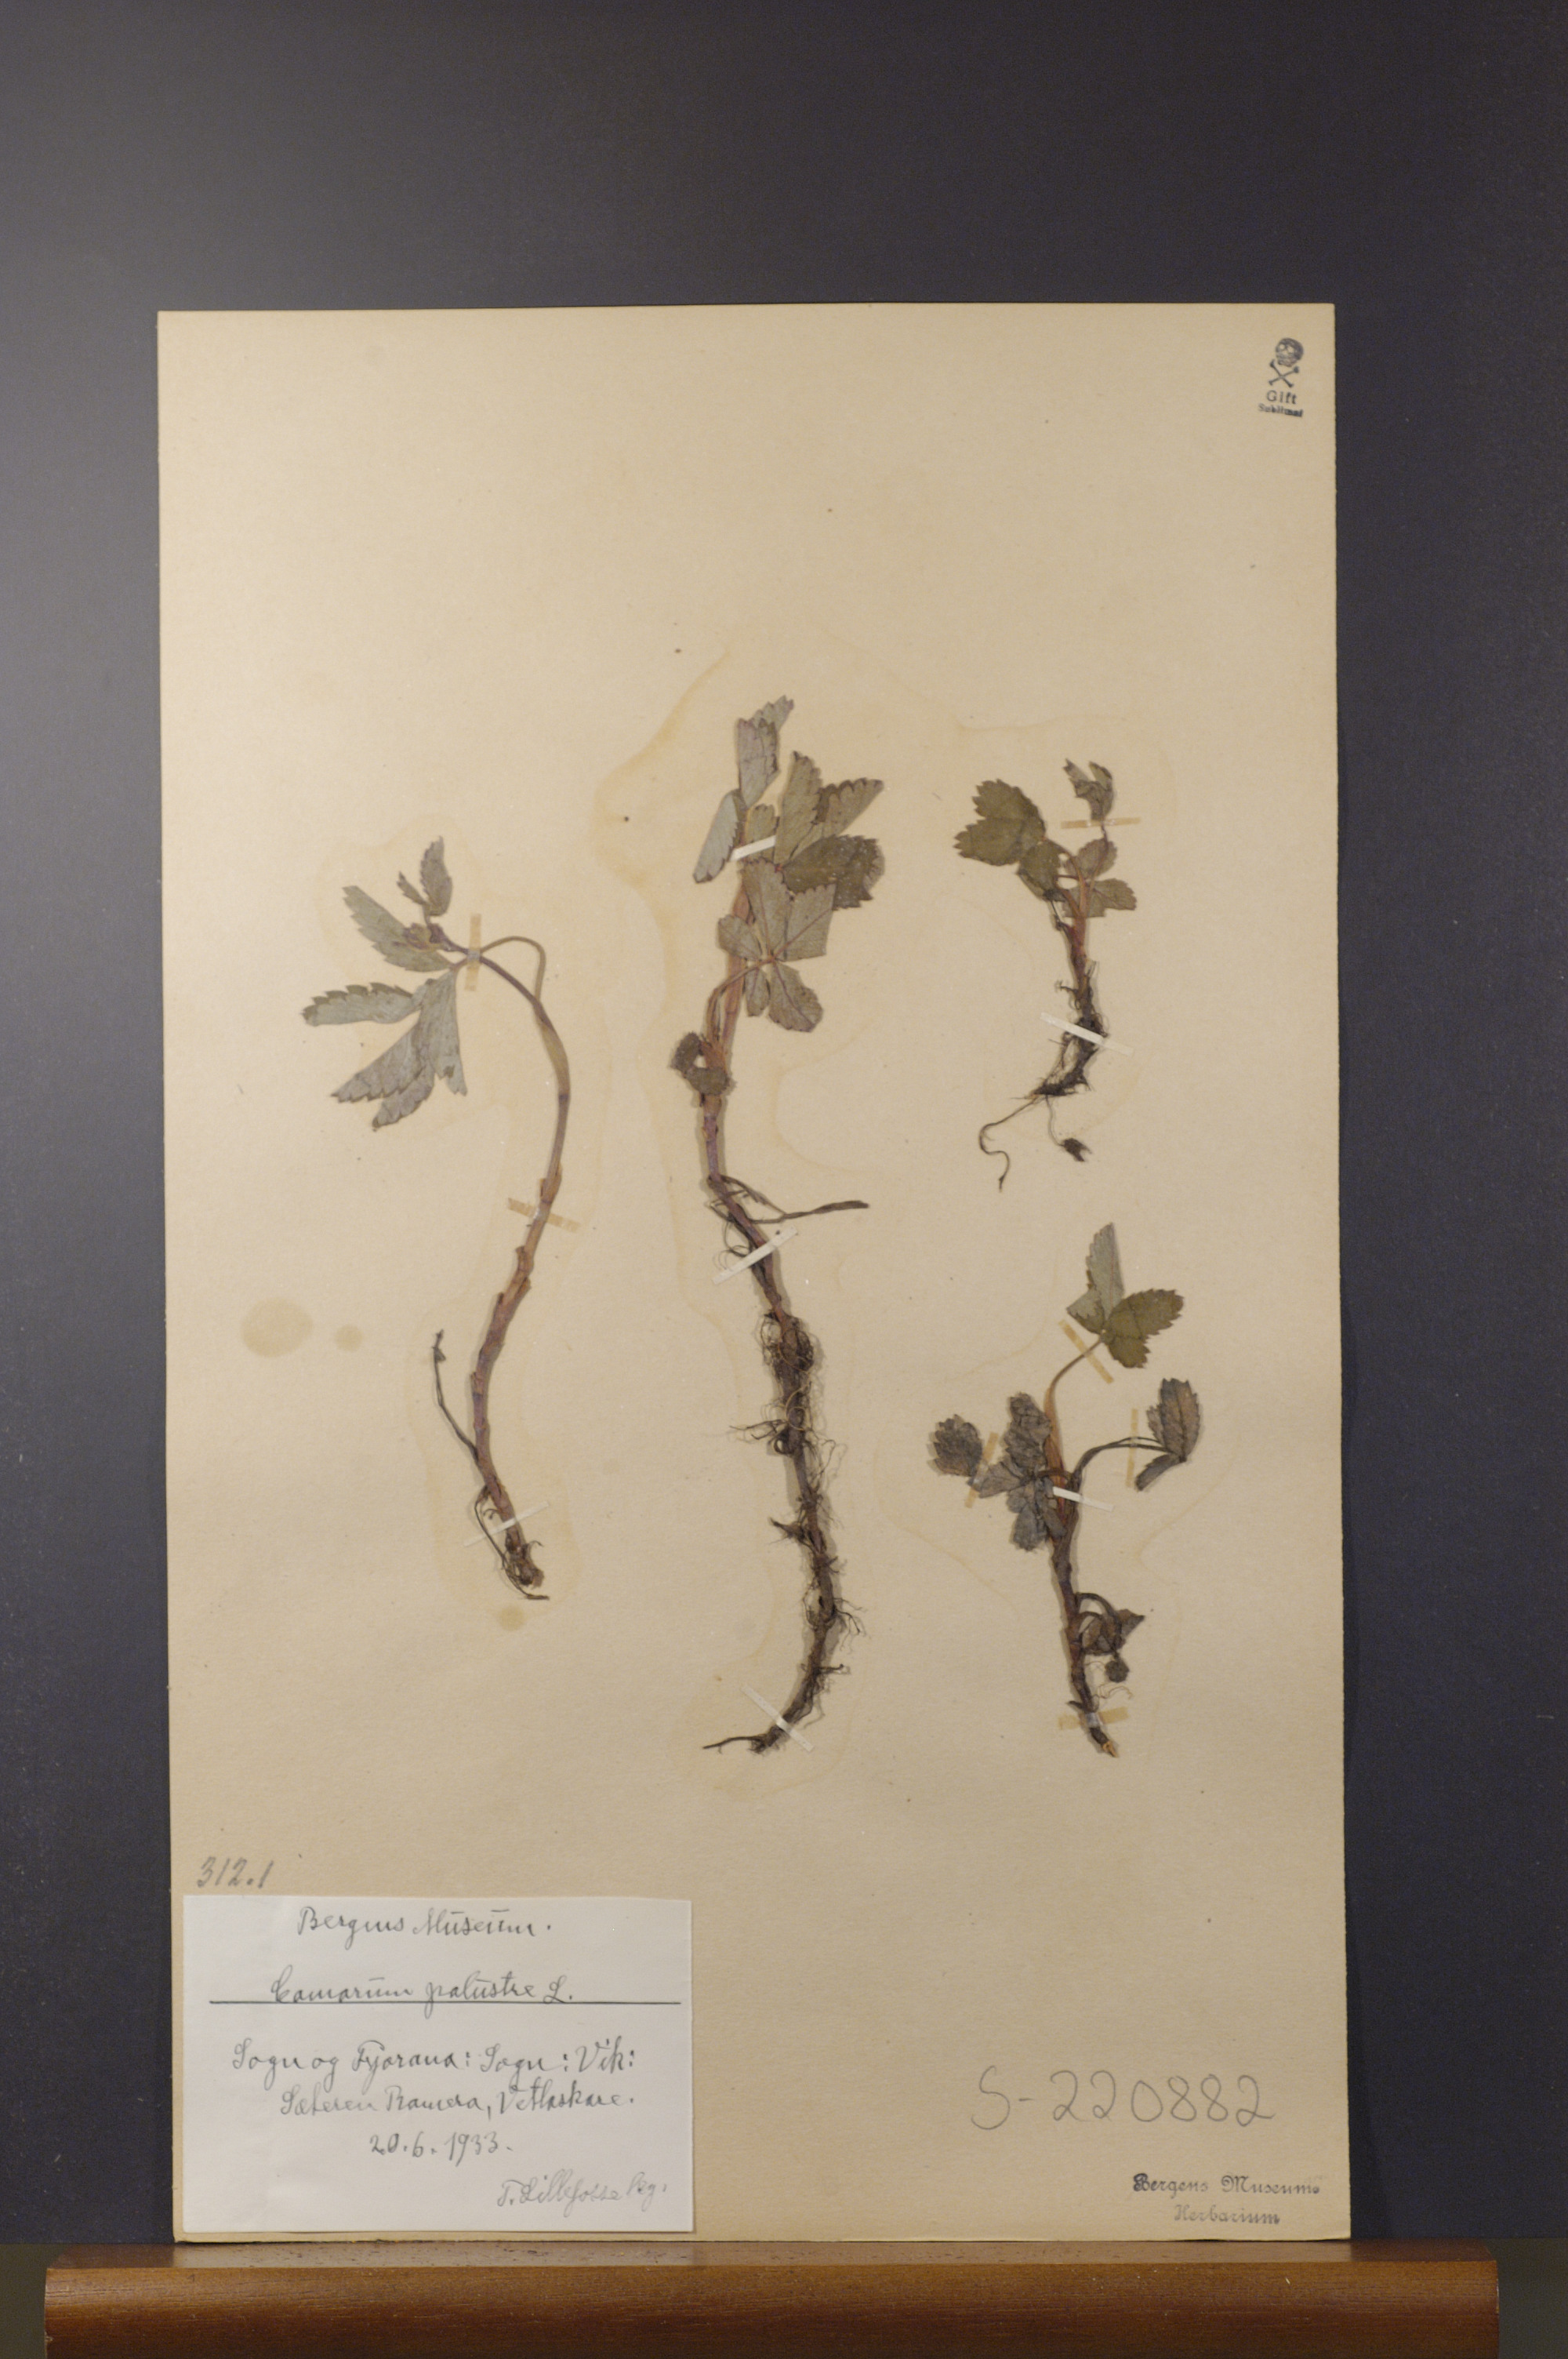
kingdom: Plantae
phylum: Tracheophyta
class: Magnoliopsida
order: Rosales
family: Rosaceae
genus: Comarum
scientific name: Comarum palustre
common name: Marsh cinquefoil
